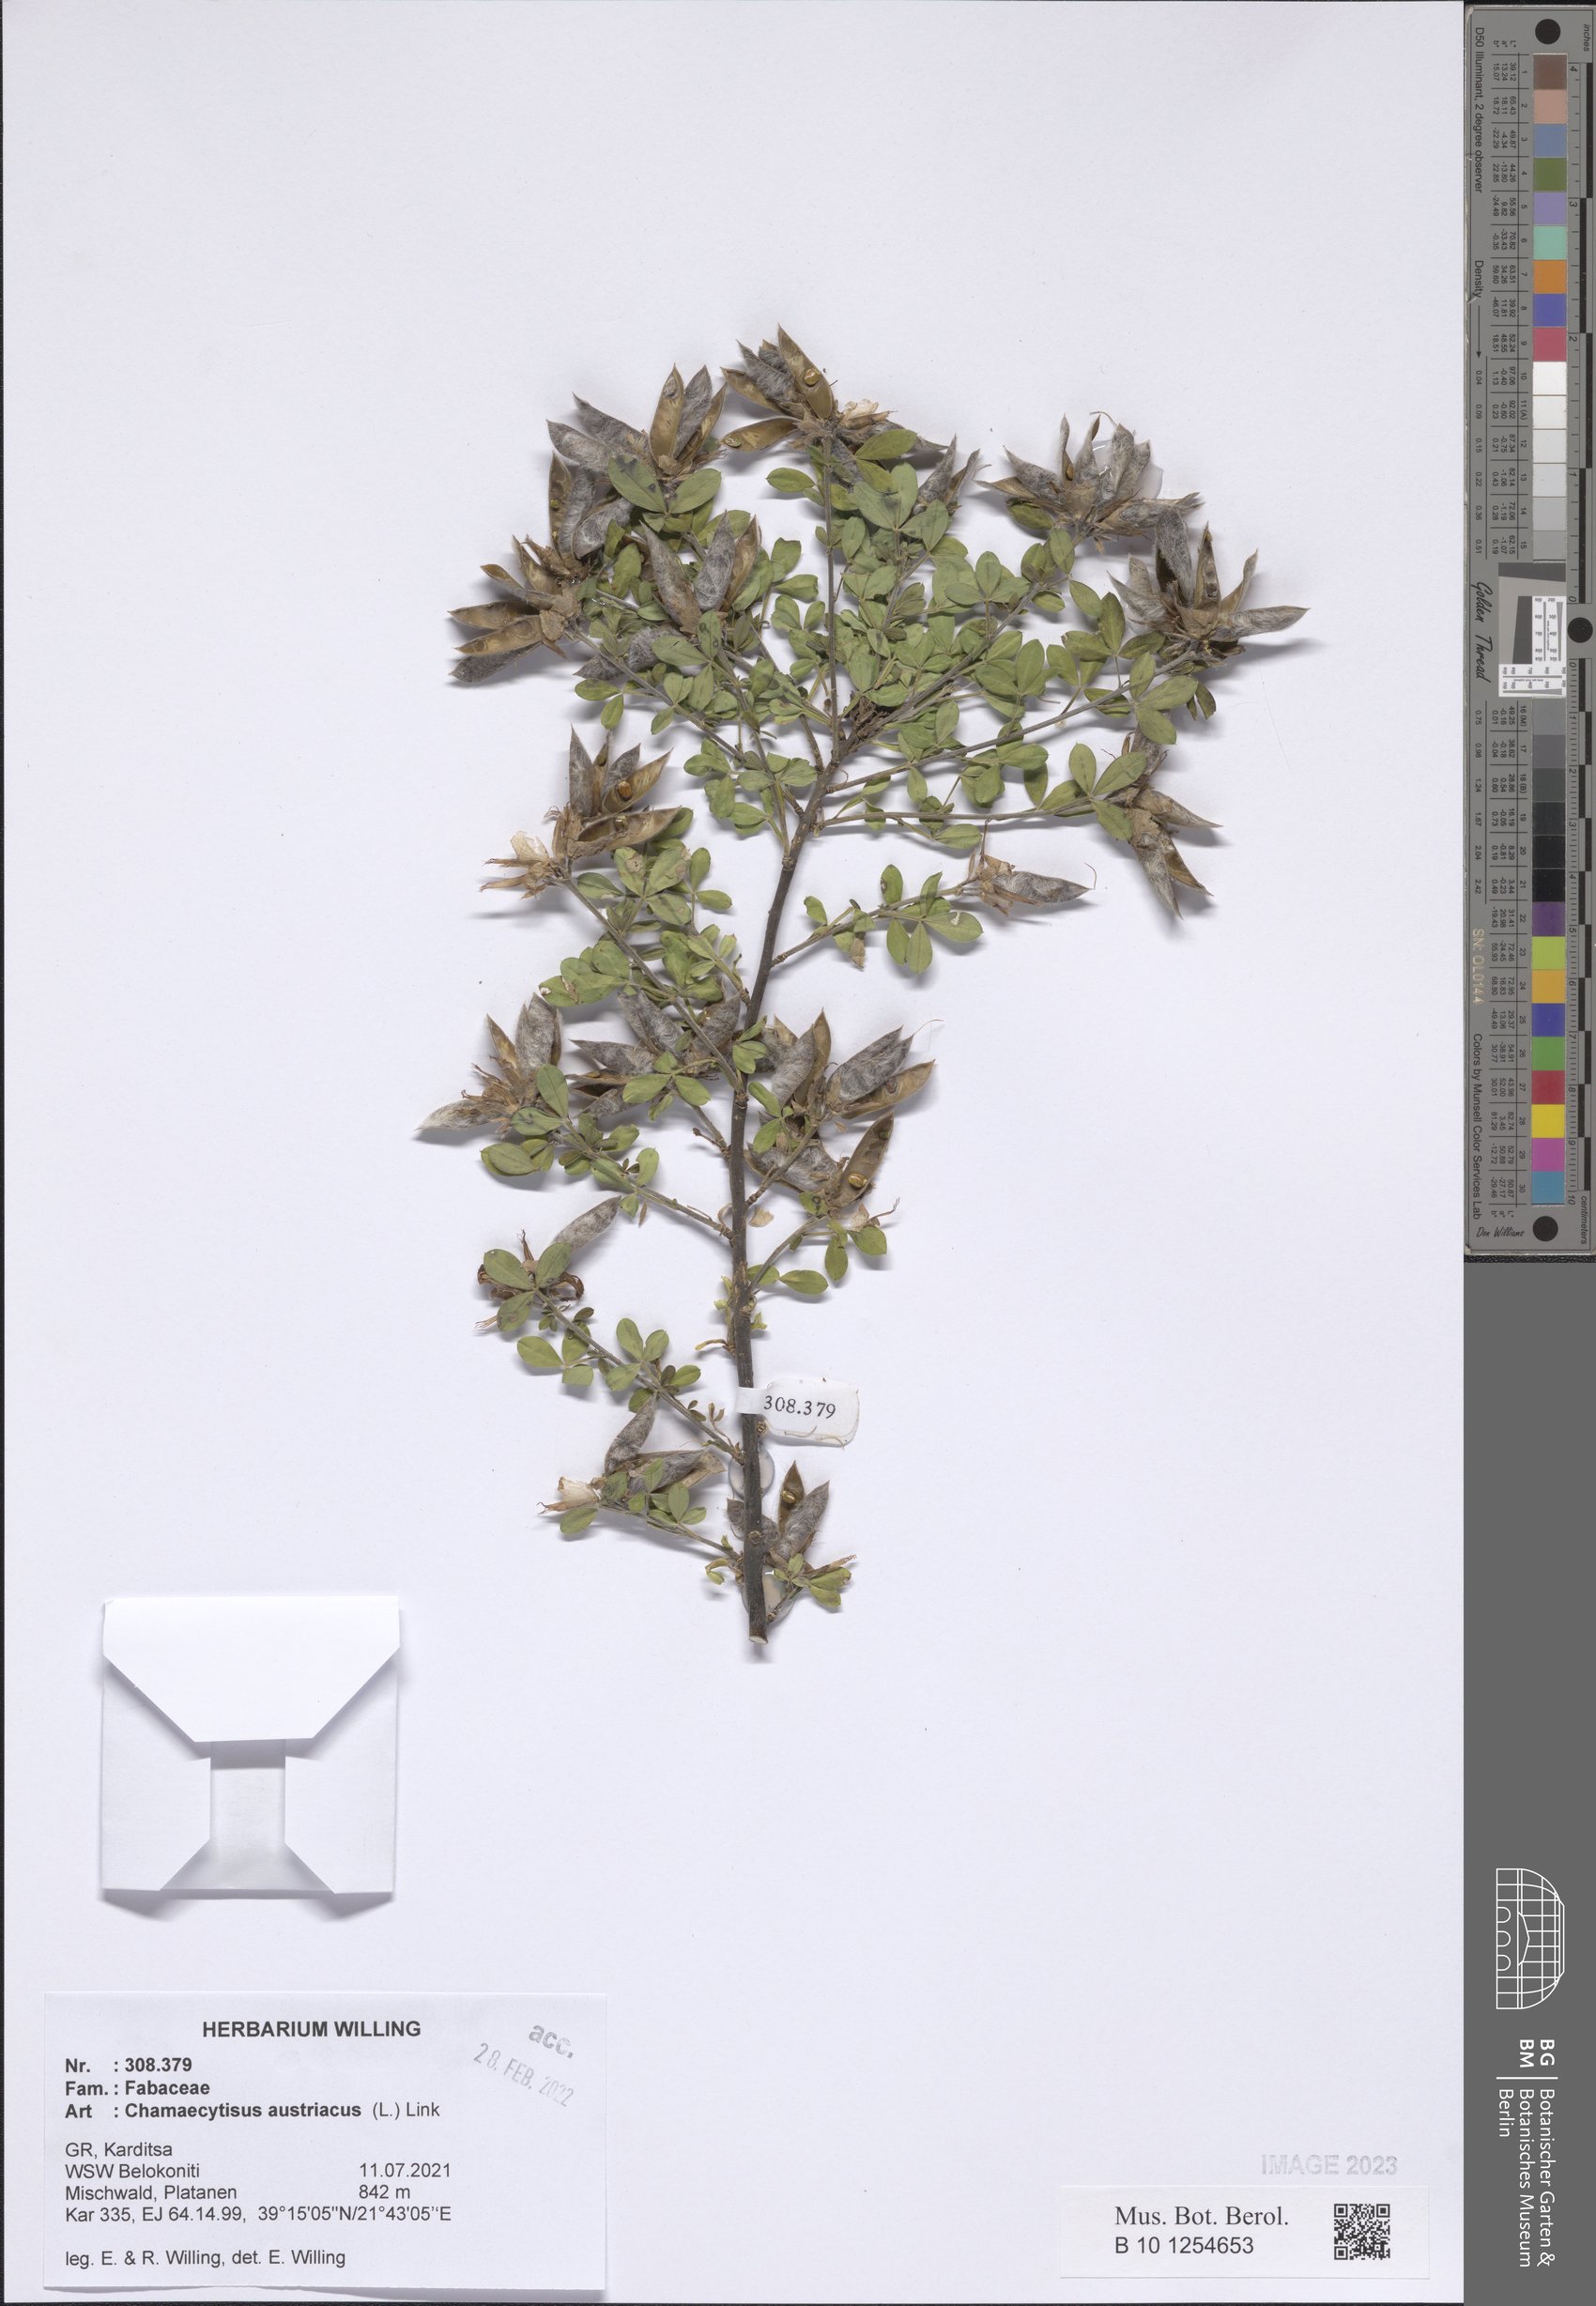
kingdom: Plantae
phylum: Tracheophyta
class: Magnoliopsida
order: Fabales
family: Fabaceae
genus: Chamaecytisus
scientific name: Chamaecytisus austriacus
